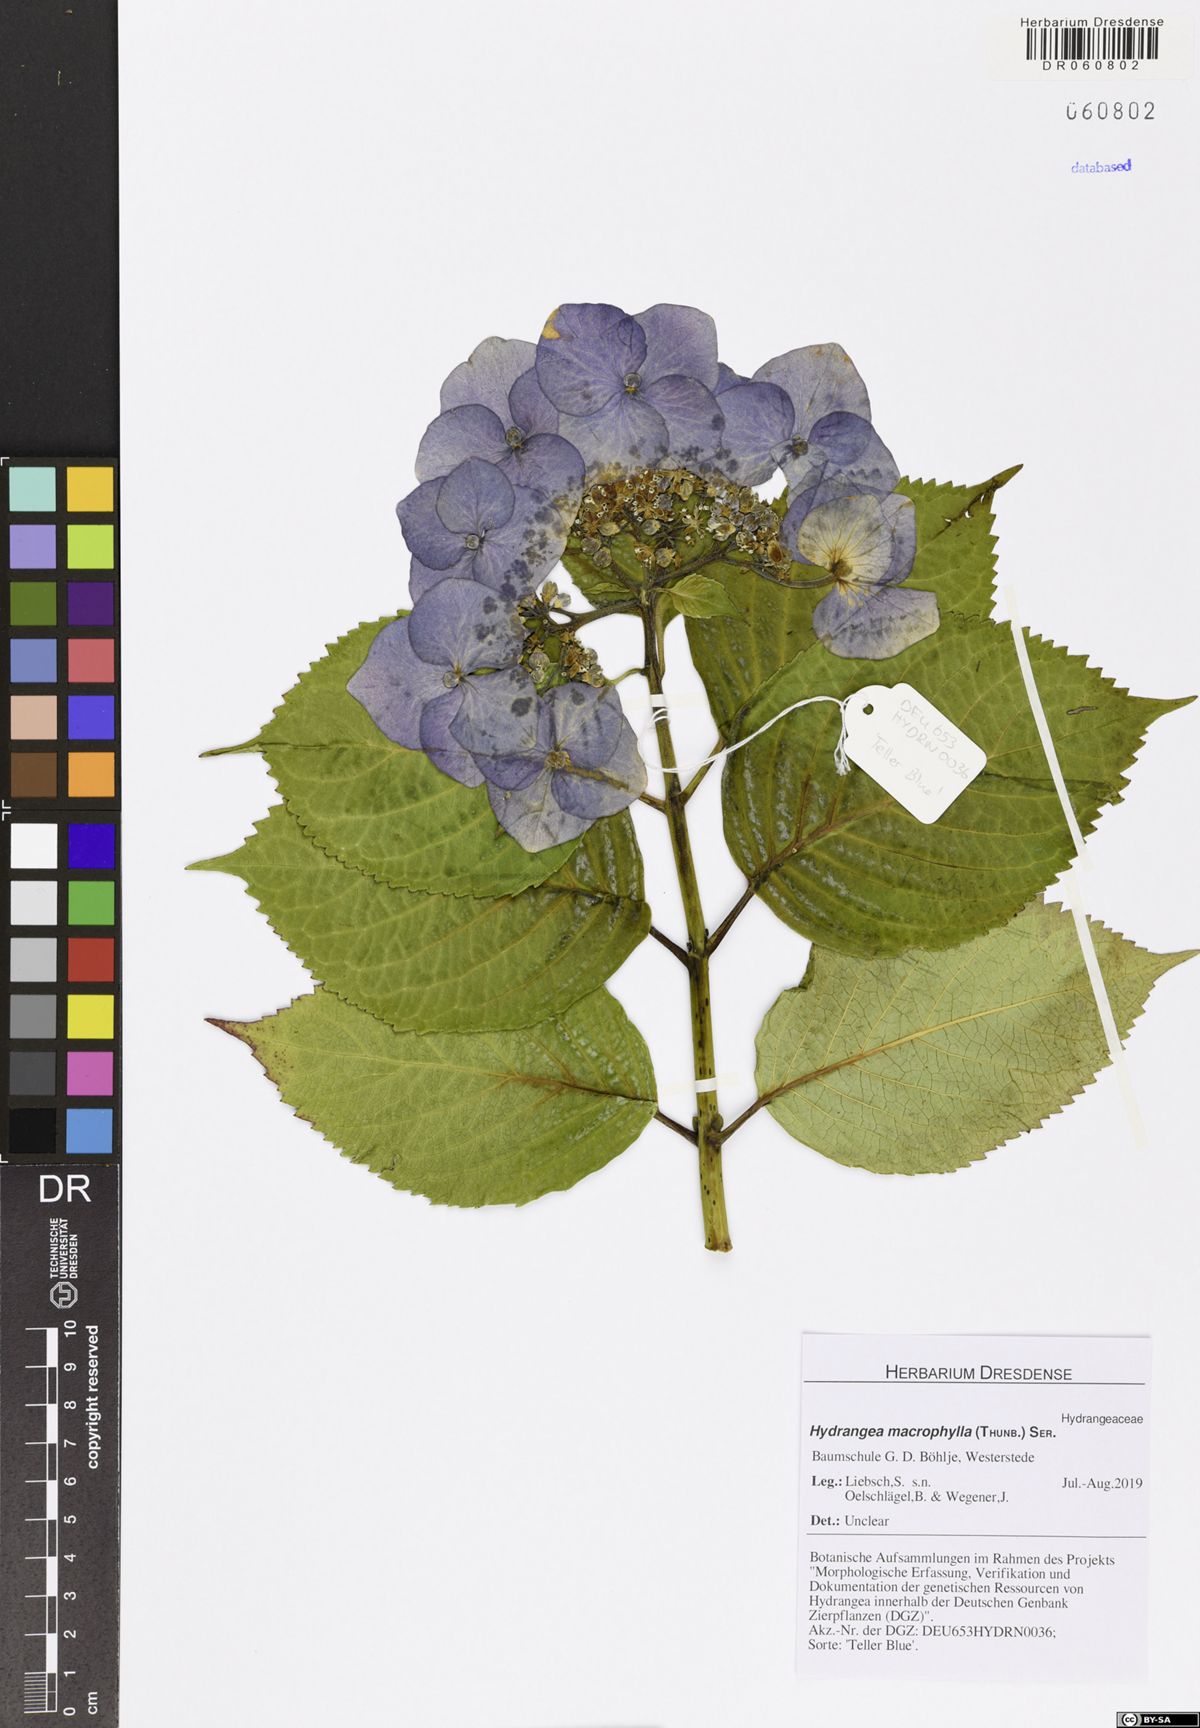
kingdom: Plantae
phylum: Tracheophyta
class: Magnoliopsida
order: Cornales
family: Hydrangeaceae
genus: Hydrangea
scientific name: Hydrangea macrophylla
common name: Hydrangea
